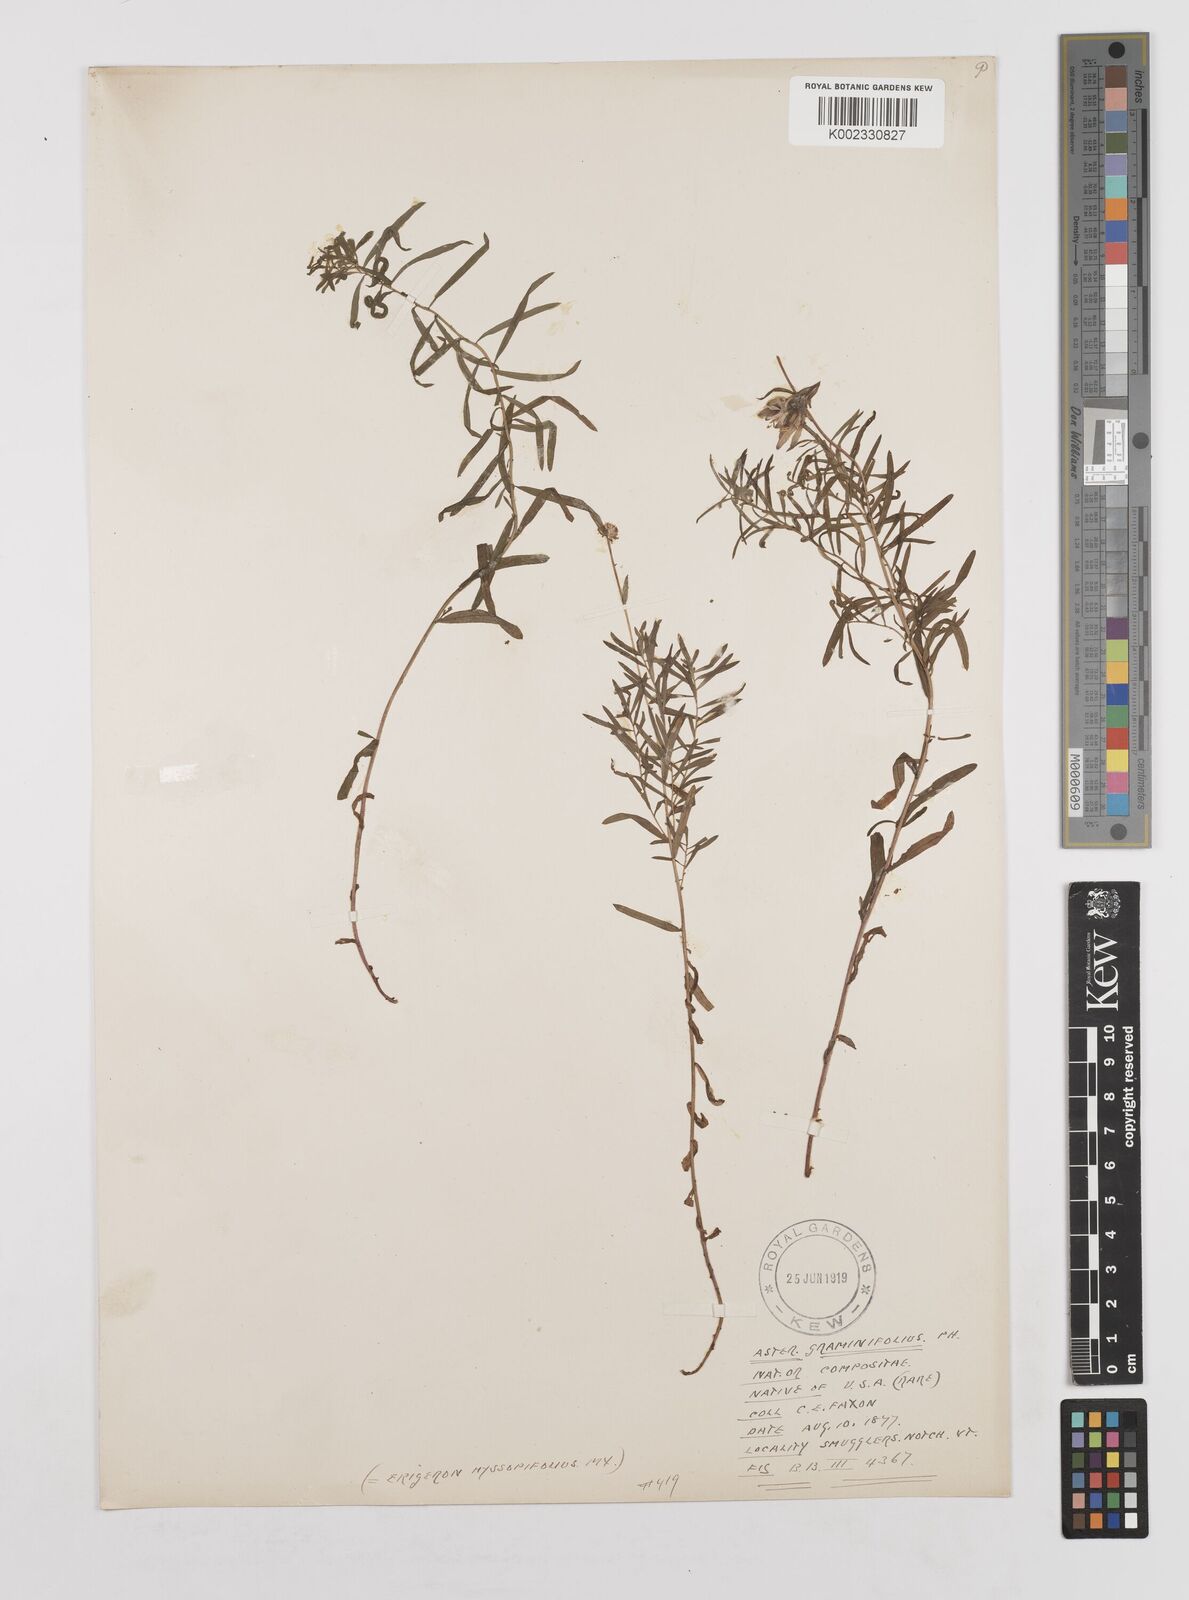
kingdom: Plantae
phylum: Tracheophyta
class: Magnoliopsida
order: Asterales
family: Asteraceae
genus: Arctogeron
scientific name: Arctogeron gramineum
